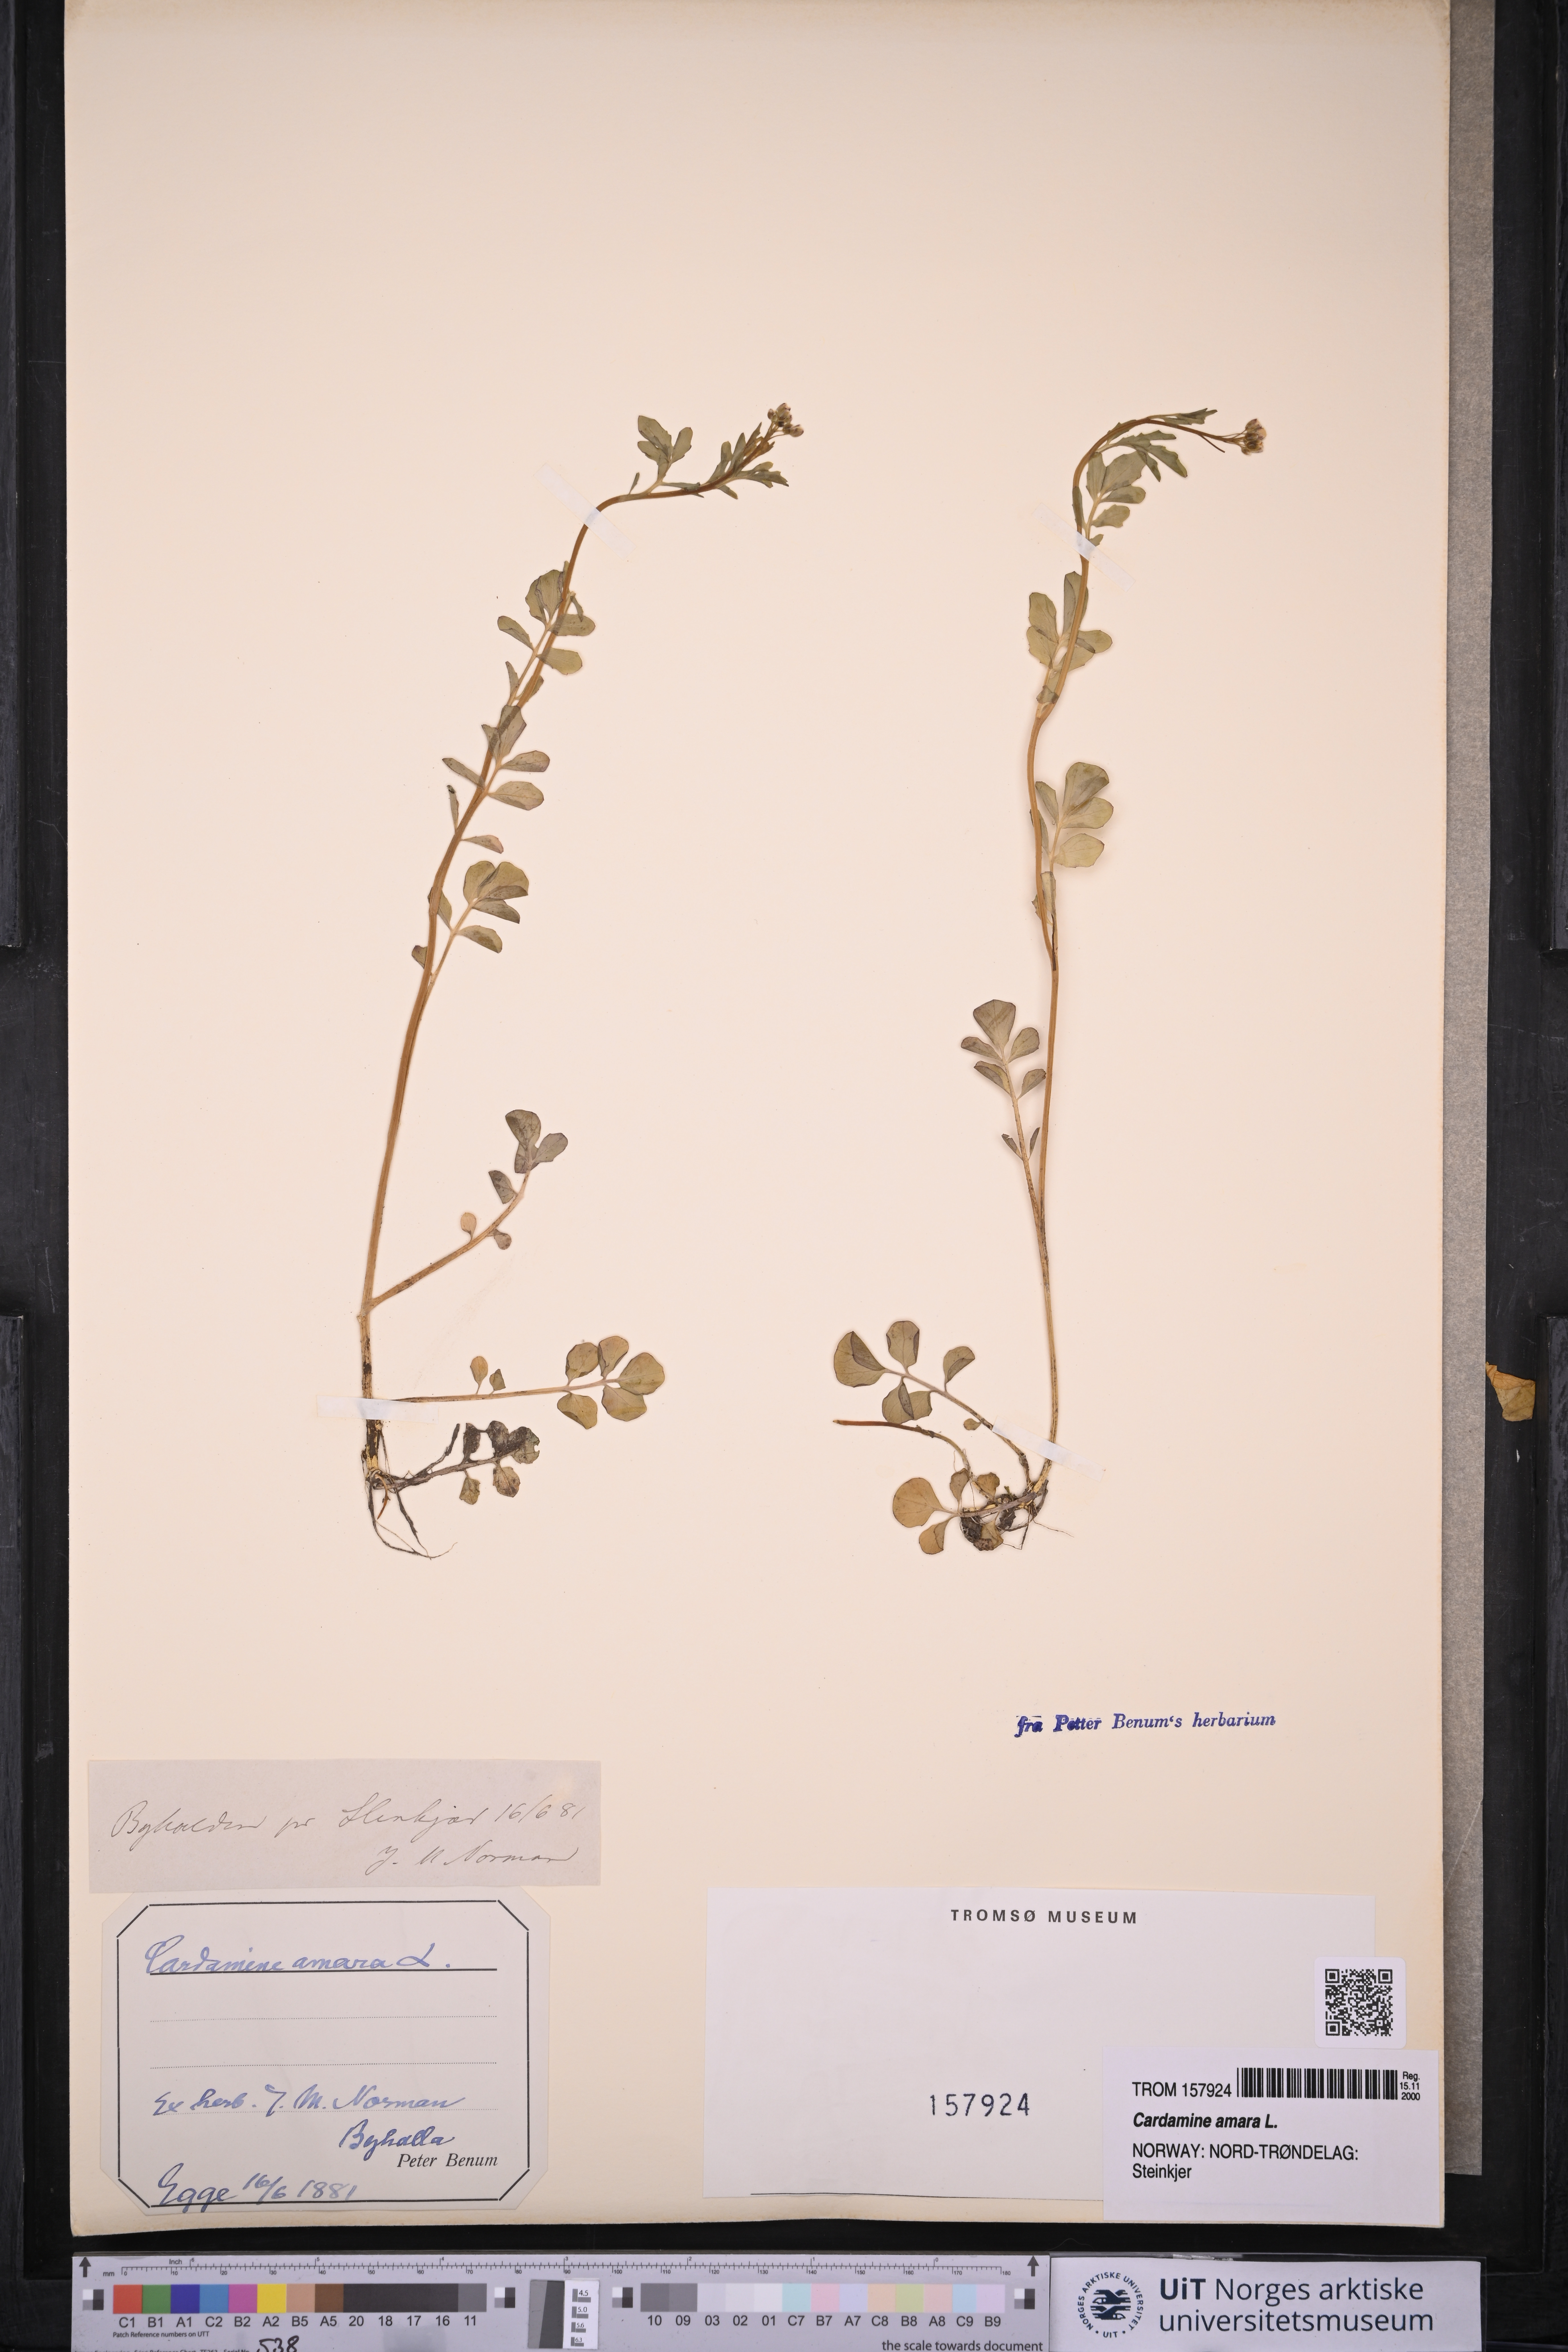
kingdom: Plantae
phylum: Tracheophyta
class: Magnoliopsida
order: Brassicales
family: Brassicaceae
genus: Cardamine
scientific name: Cardamine amara
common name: Large bitter-cress
